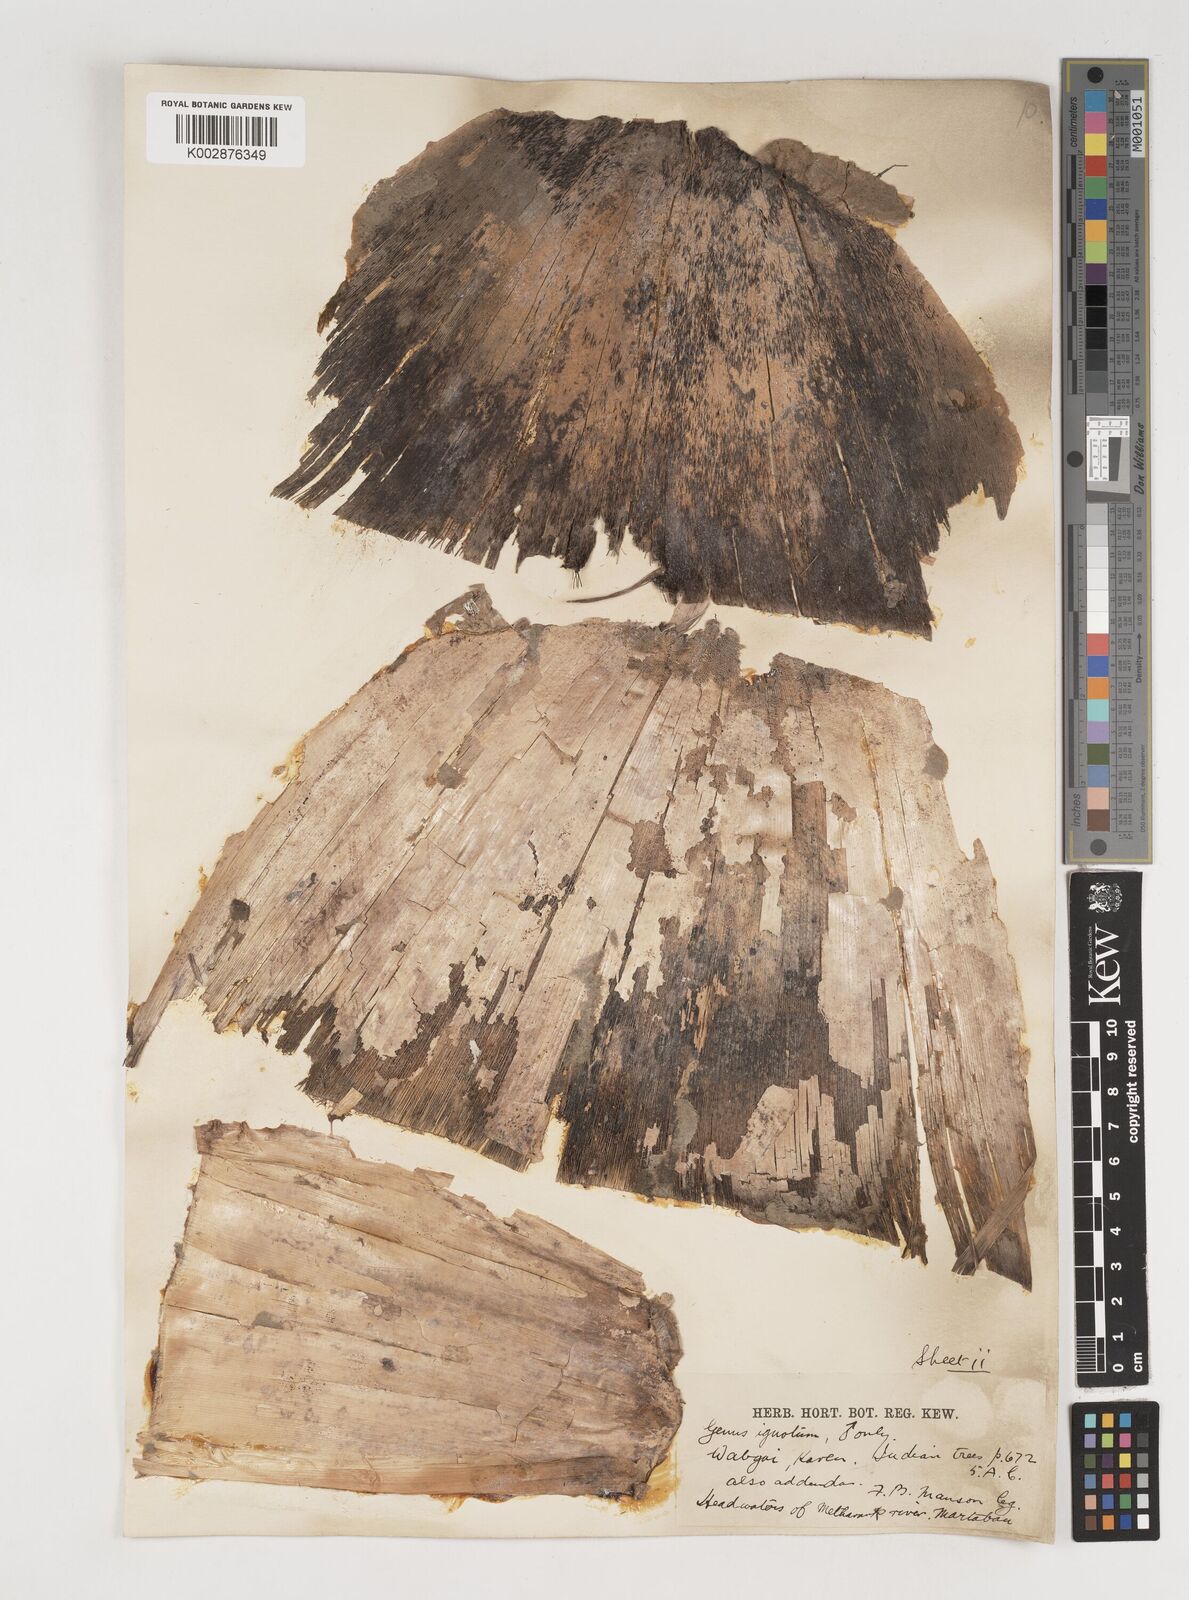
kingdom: Plantae
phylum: Tracheophyta
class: Liliopsida
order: Poales
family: Poaceae
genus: Bambusa
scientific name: Bambusa burmanica
